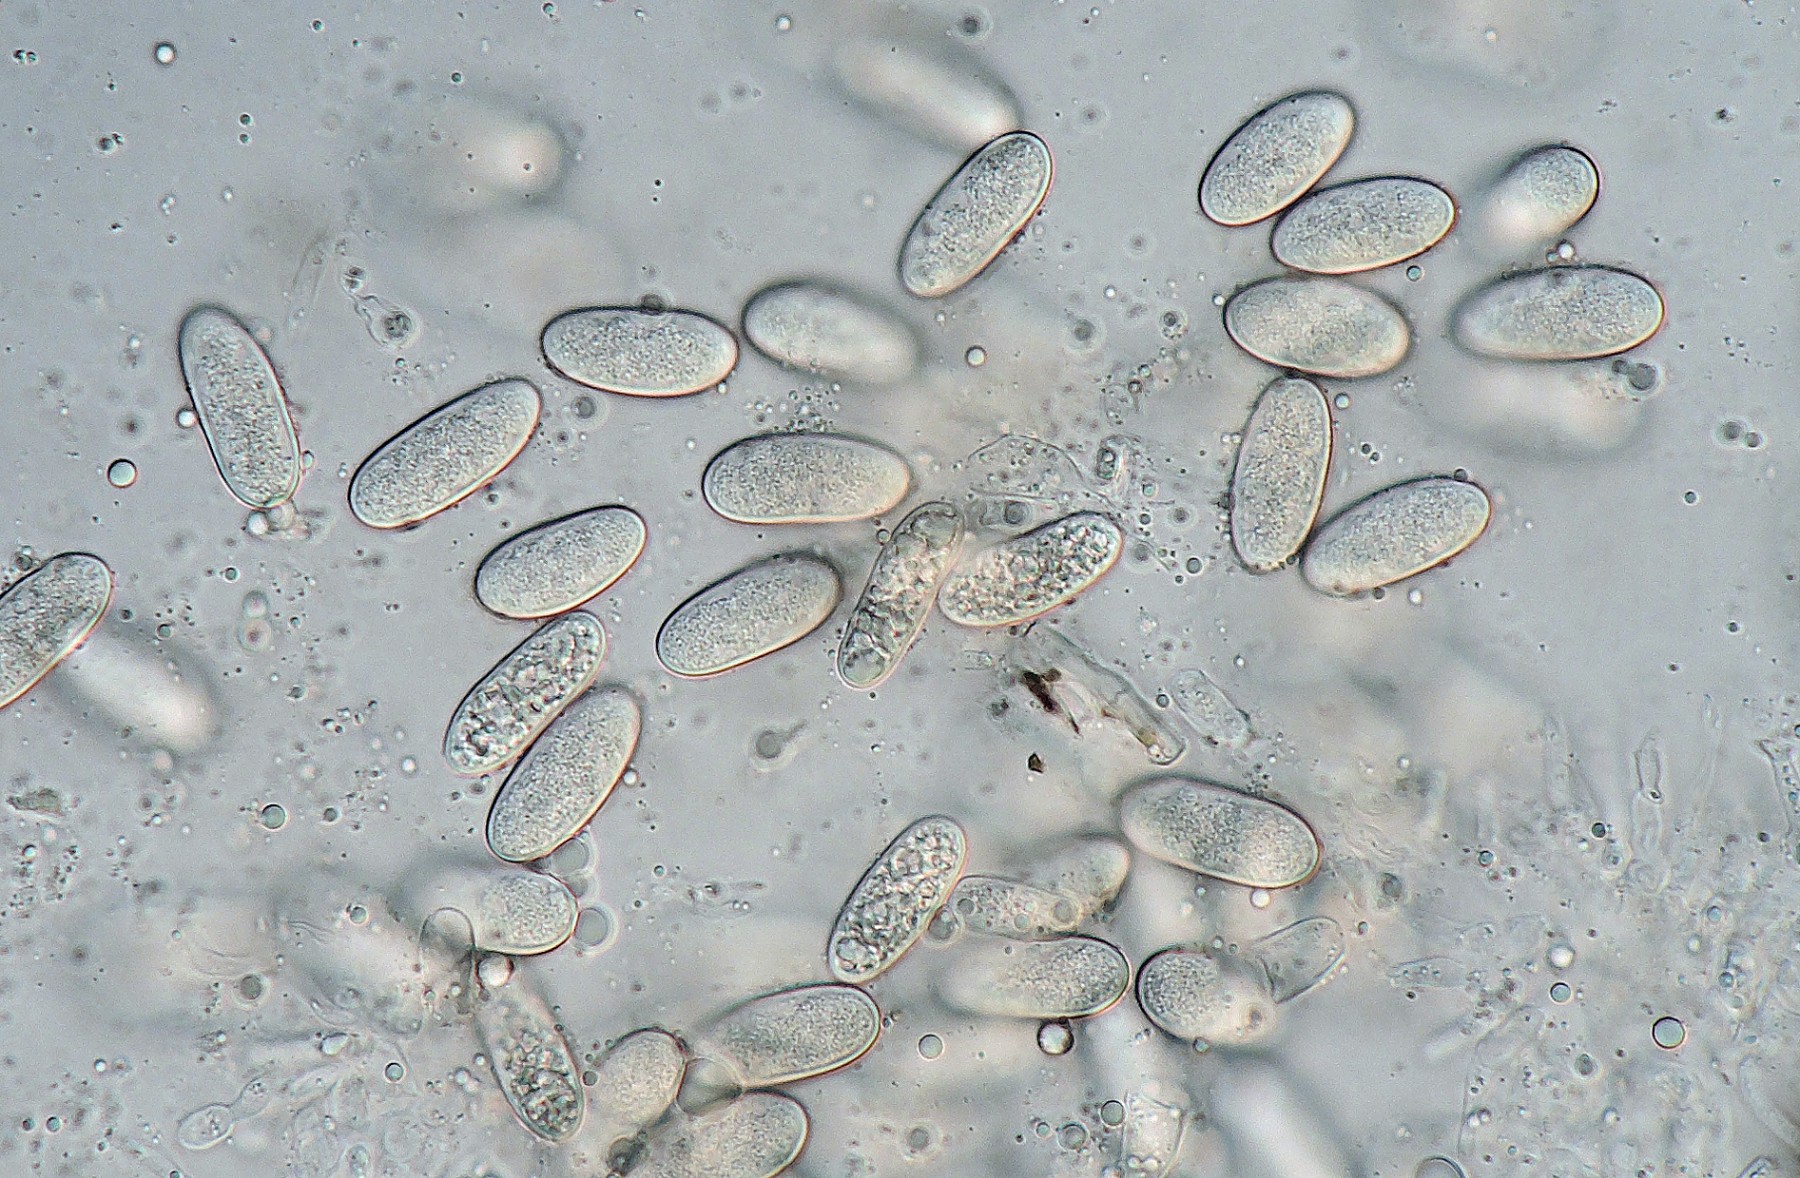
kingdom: Fungi
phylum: Ascomycota
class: Sordariomycetes
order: Diaporthales
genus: Botryodiplodia
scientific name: Botryodiplodia fraxini
